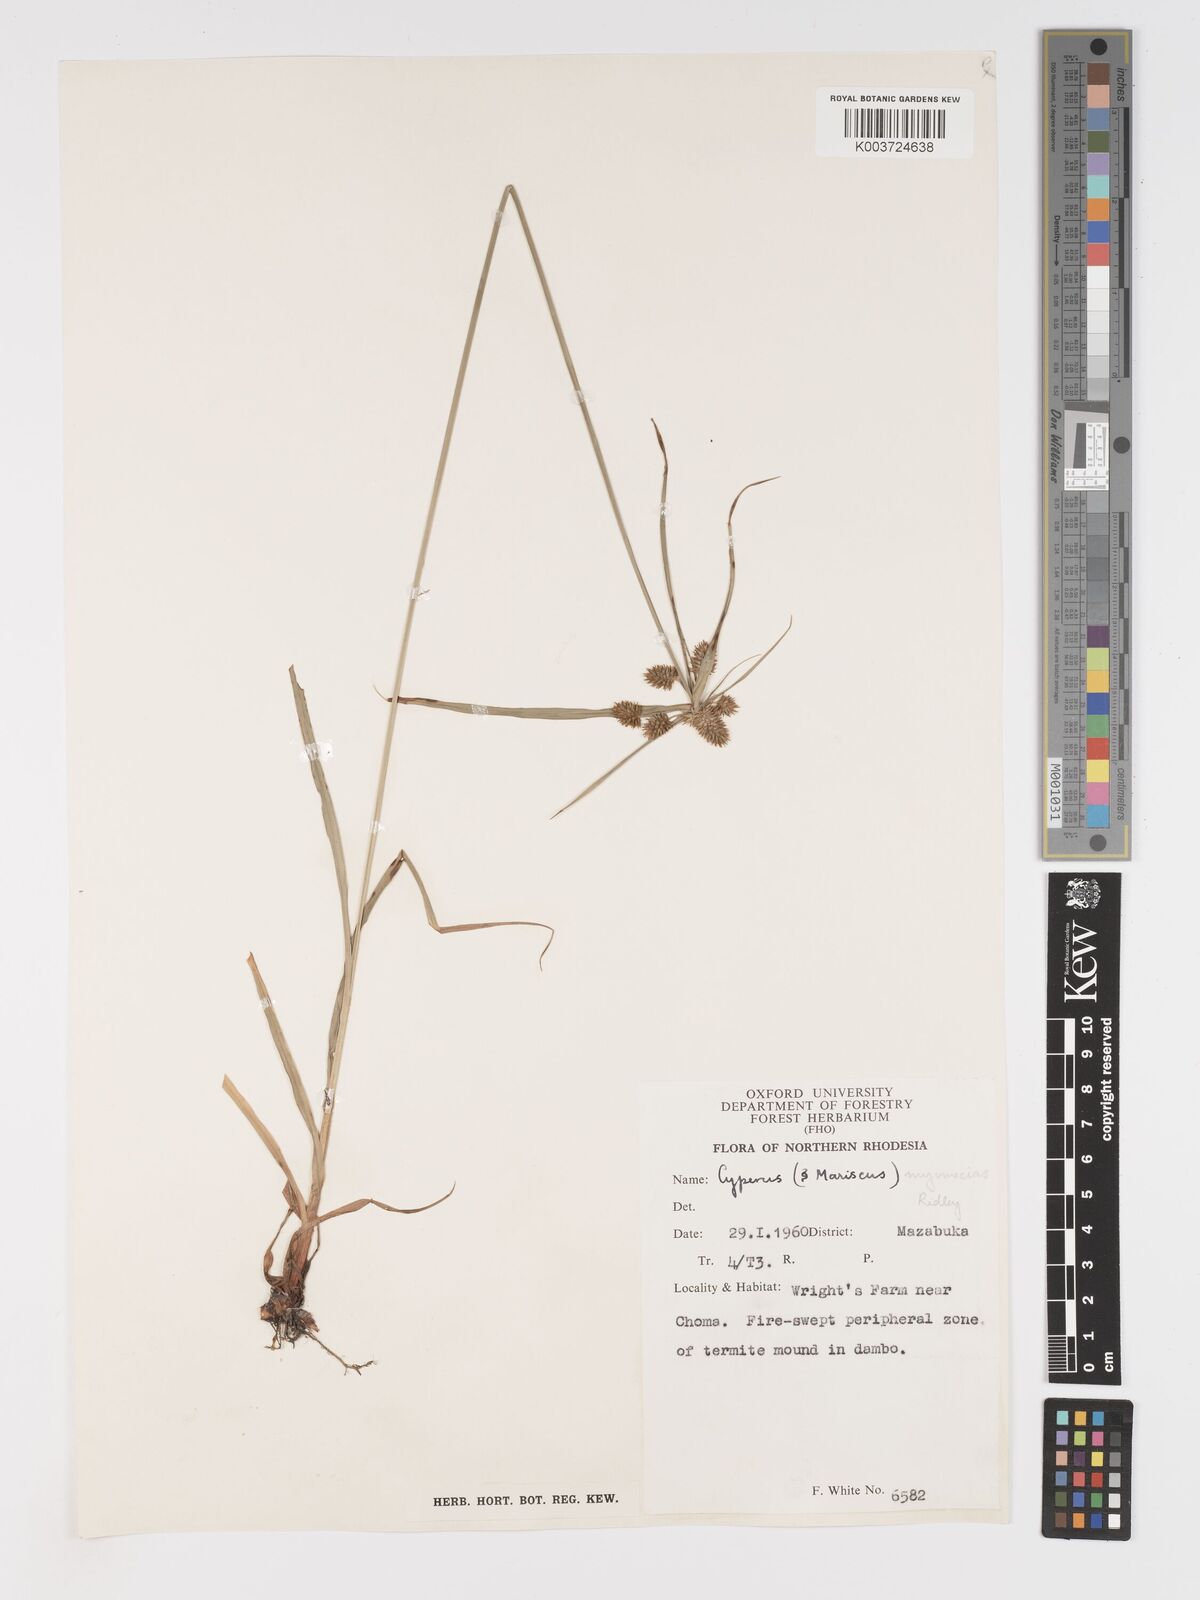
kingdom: Plantae
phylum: Tracheophyta
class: Liliopsida
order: Poales
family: Cyperaceae
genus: Cyperus
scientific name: Cyperus myrmecias
